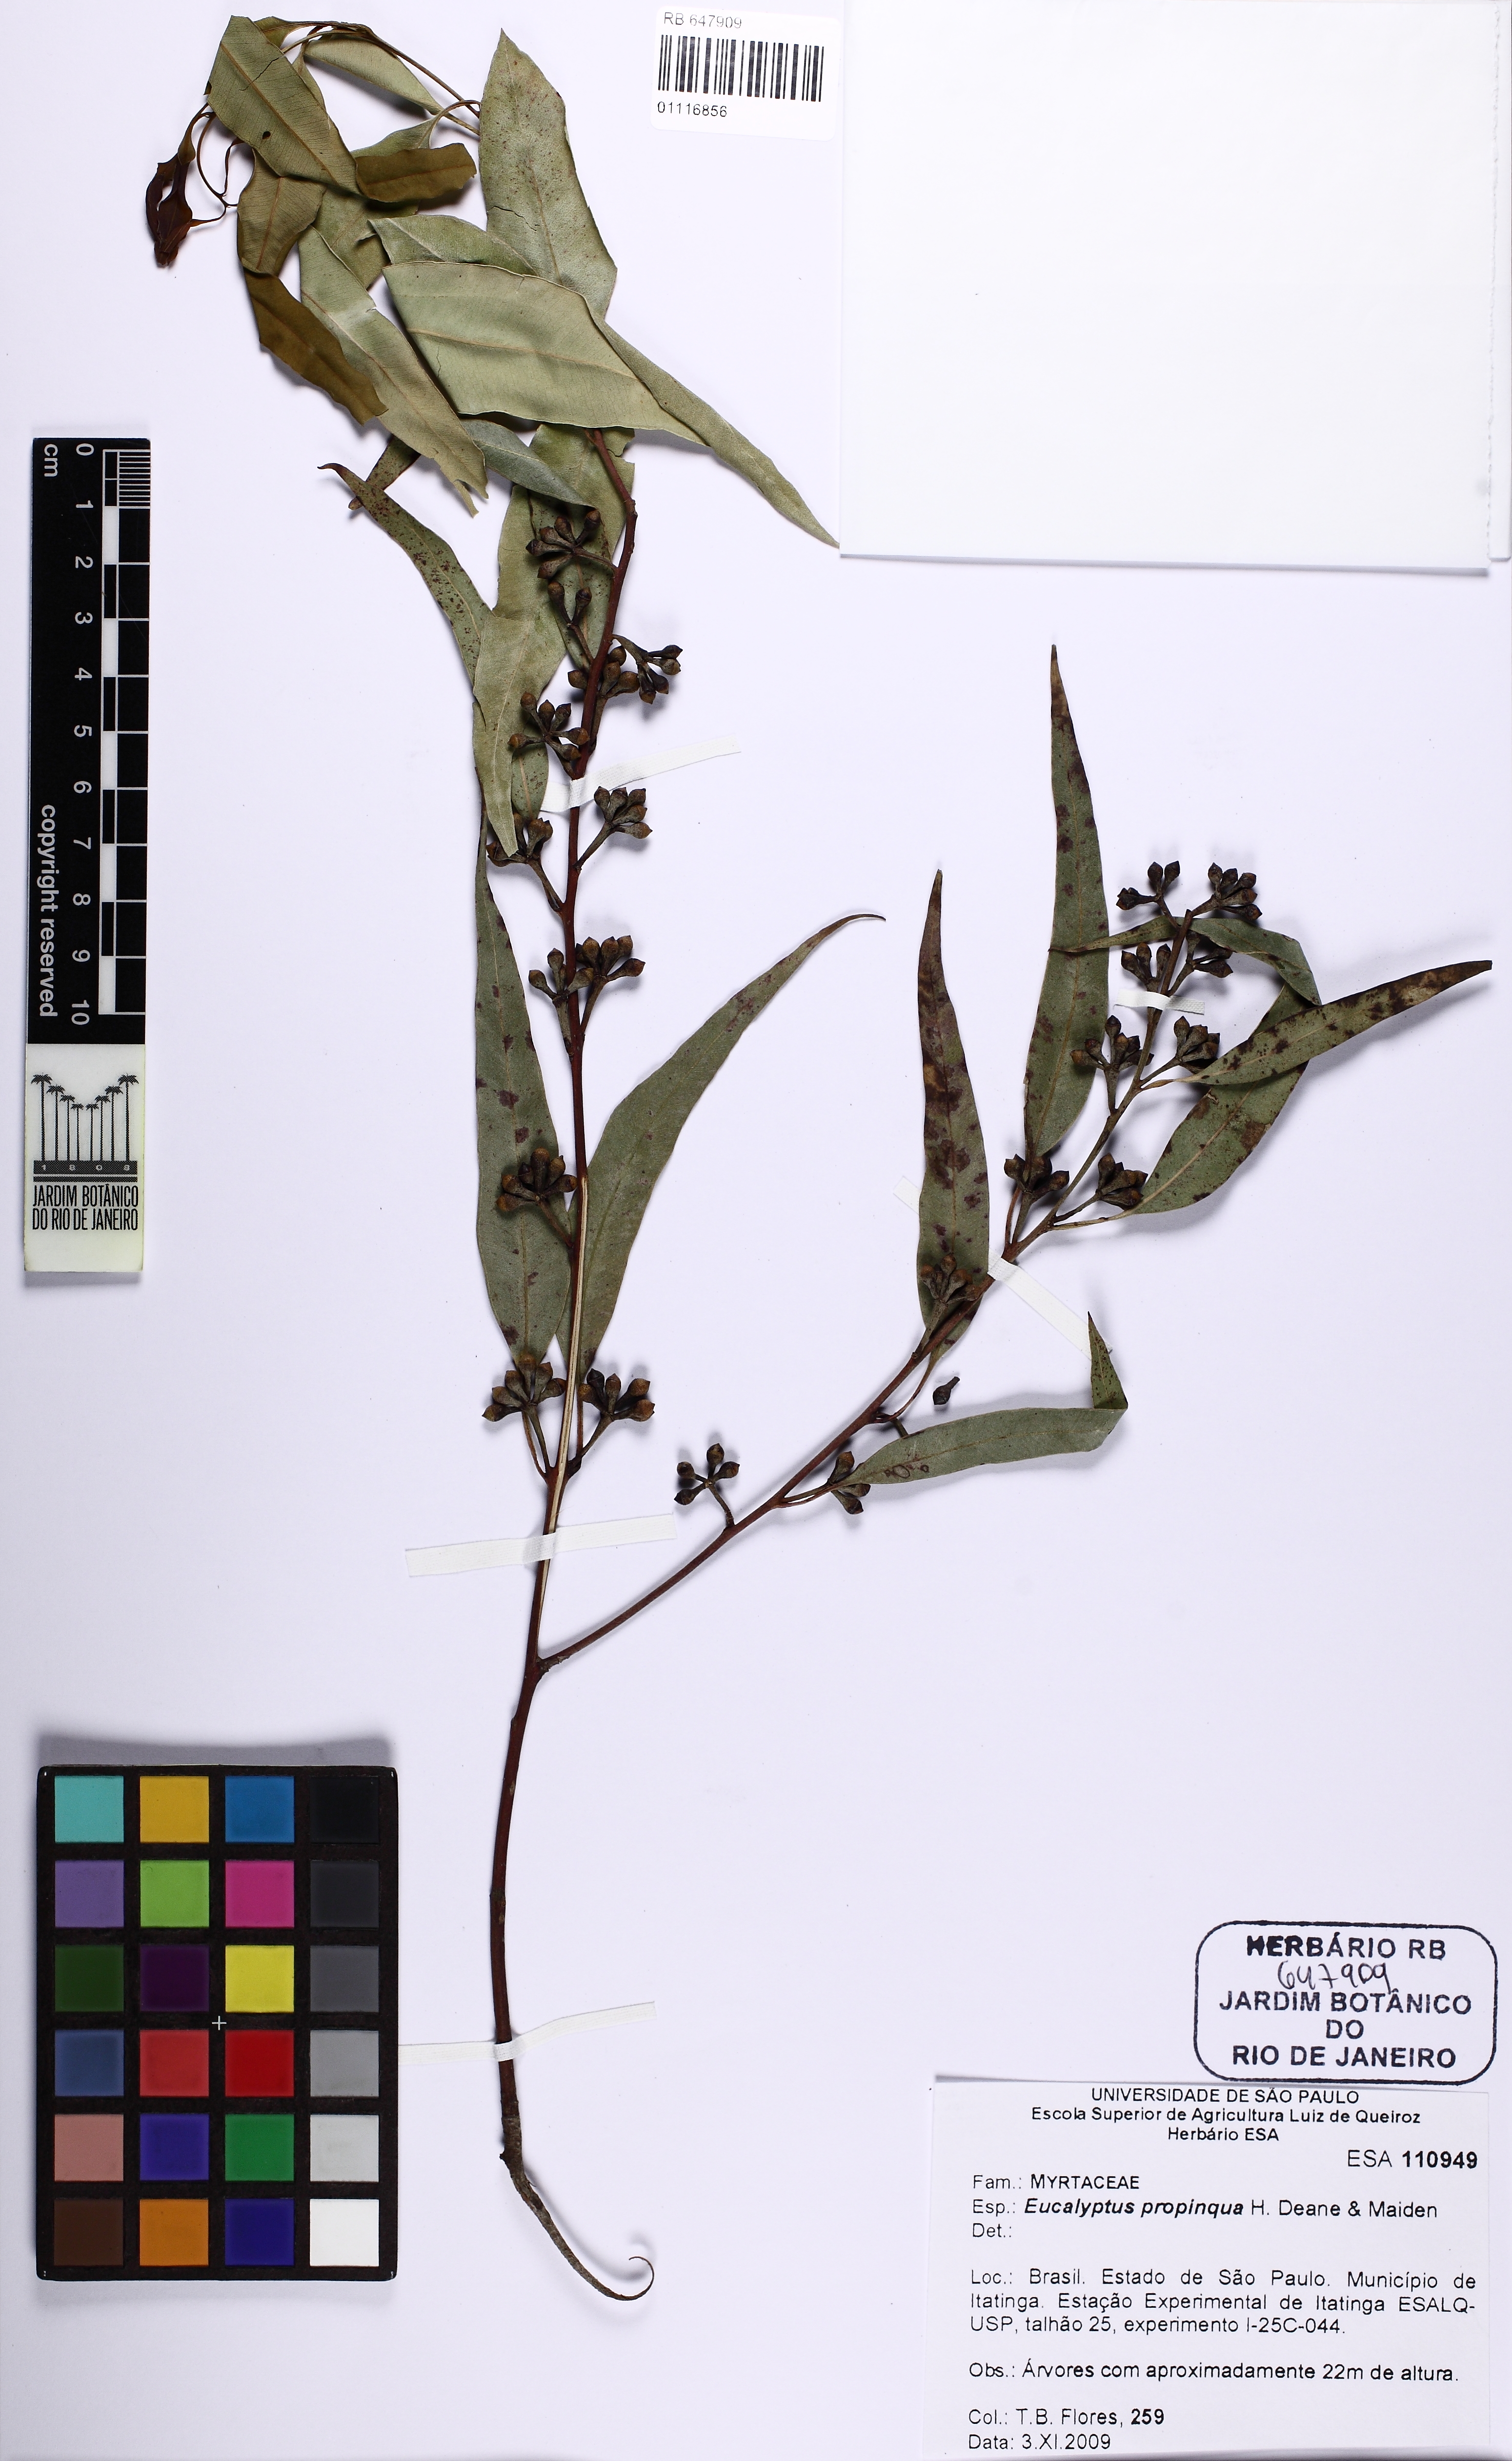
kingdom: Plantae
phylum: Tracheophyta
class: Magnoliopsida
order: Myrtales
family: Myrtaceae
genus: Eucalyptus
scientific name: Eucalyptus propinqua
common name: Grey-gum
